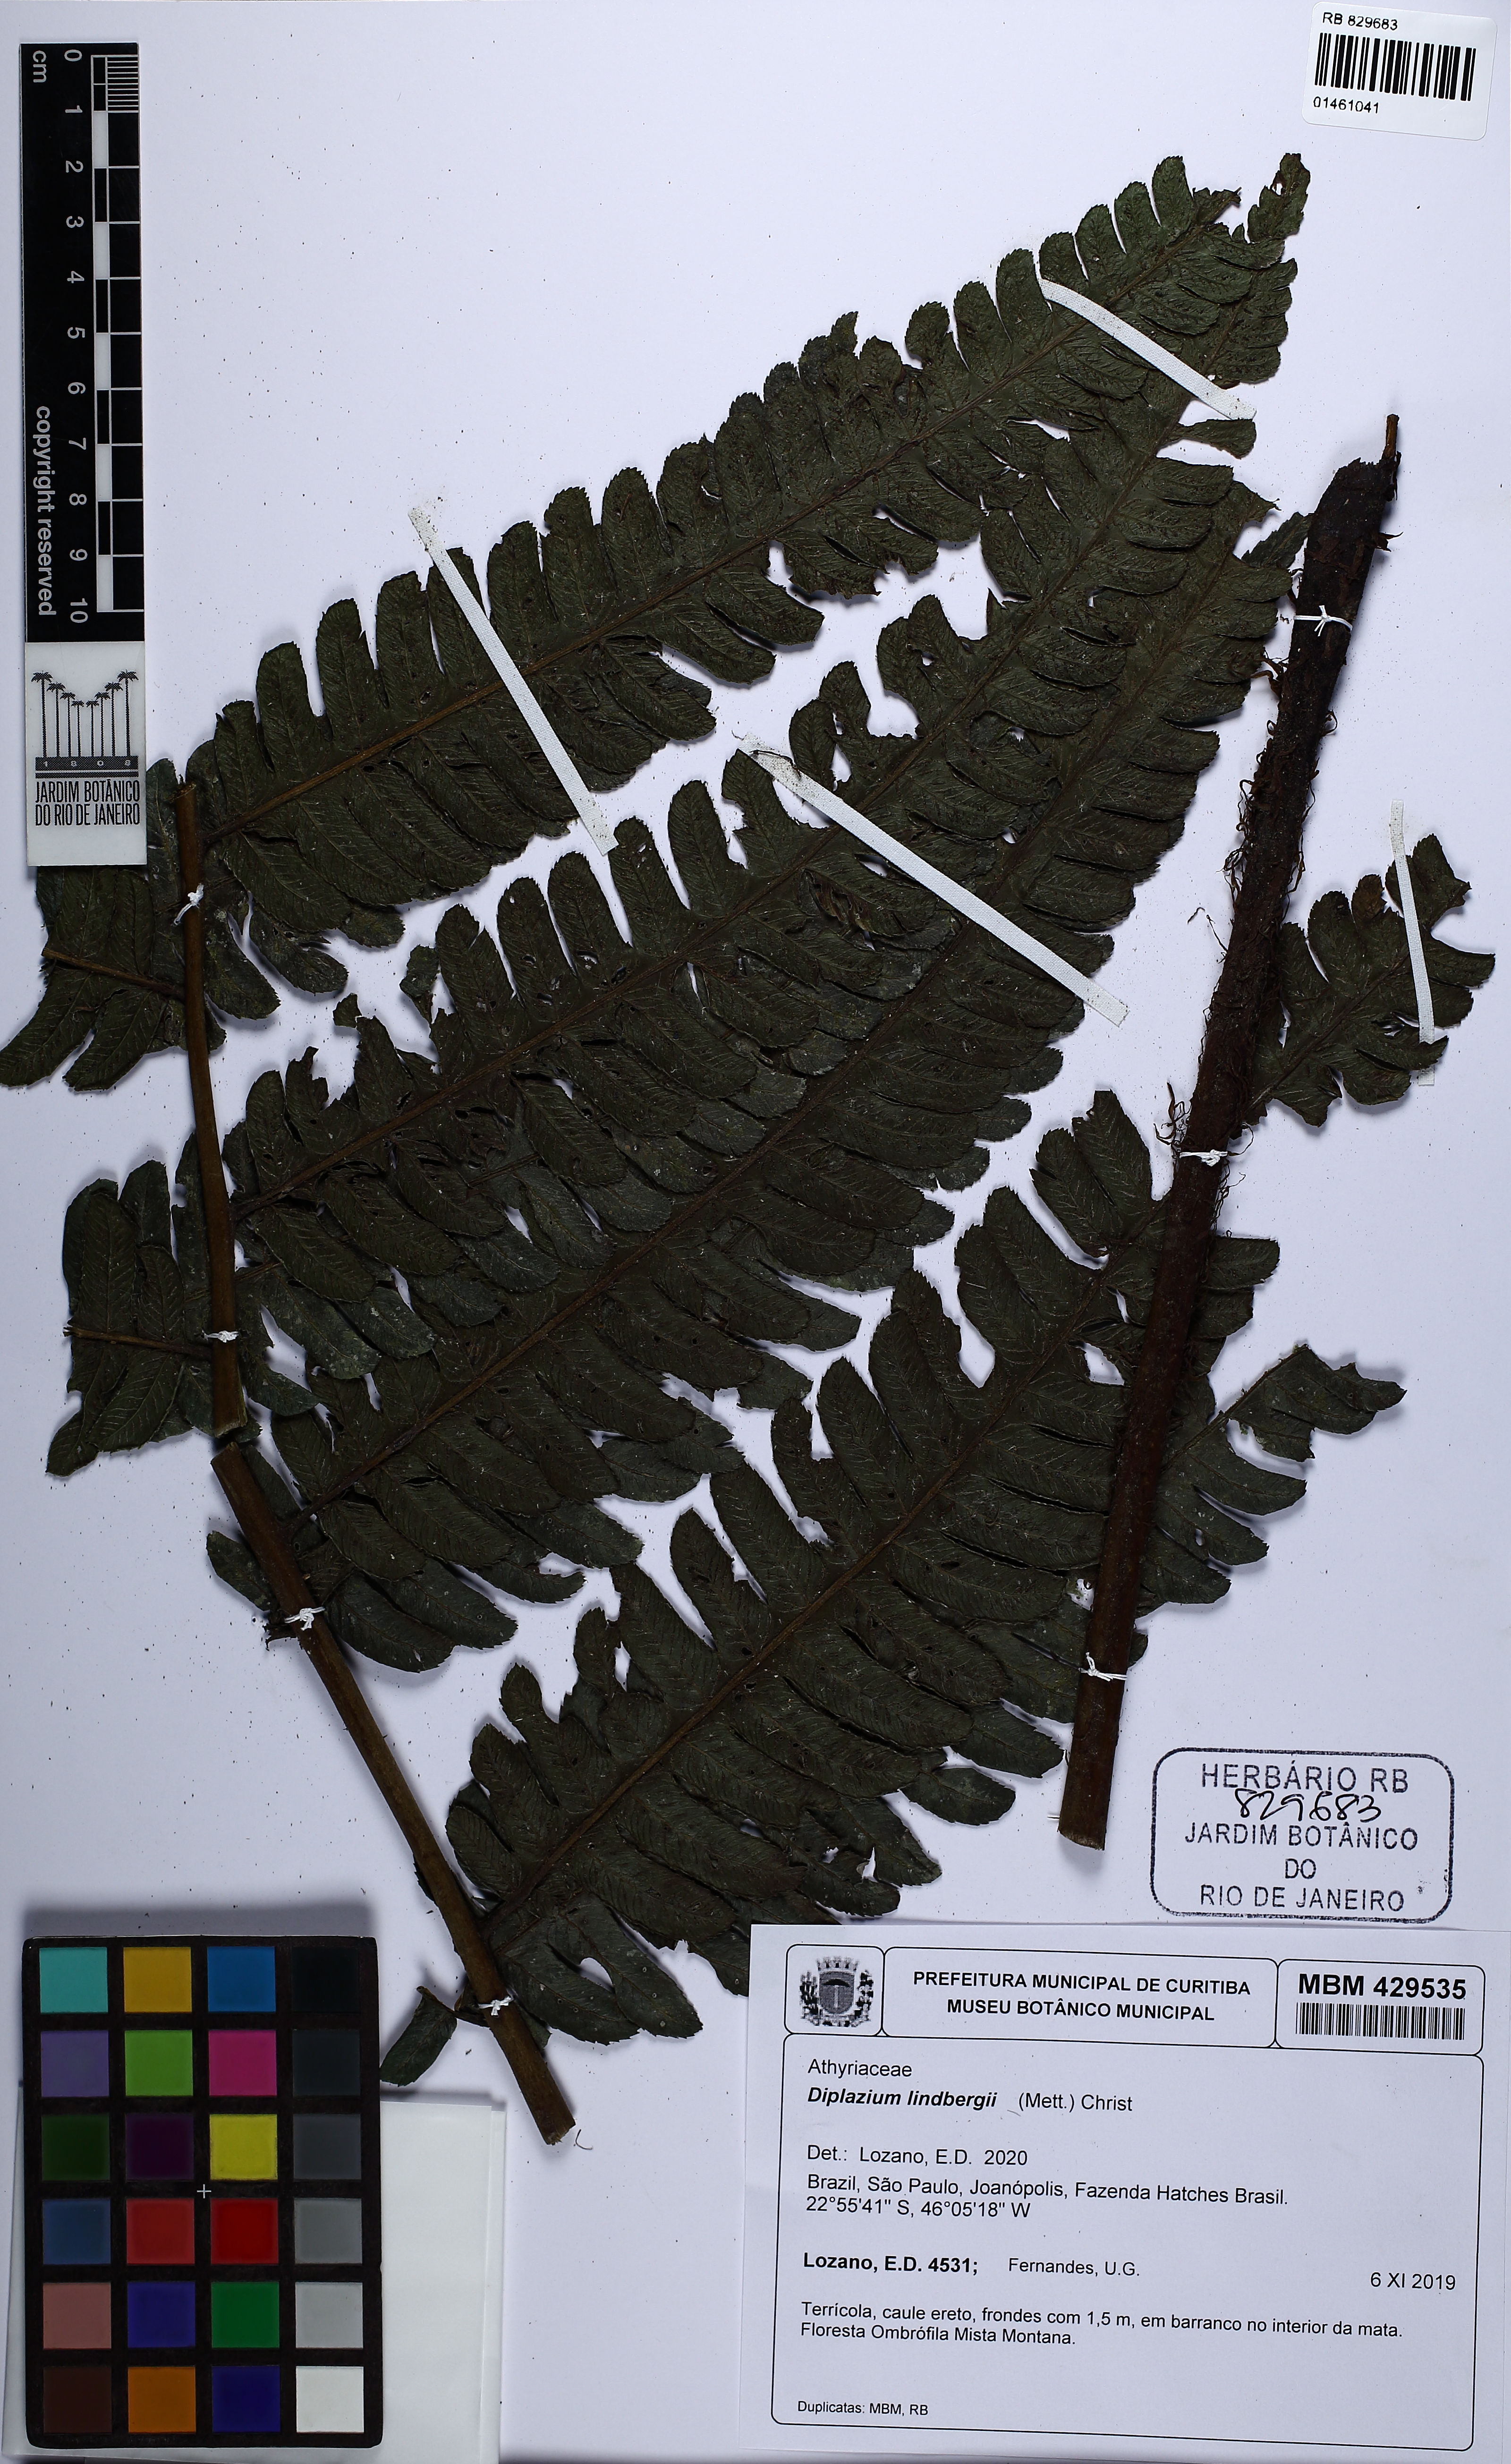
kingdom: Plantae
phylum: Tracheophyta
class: Polypodiopsida
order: Polypodiales
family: Athyriaceae
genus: Diplazium
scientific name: Diplazium lindbergii
